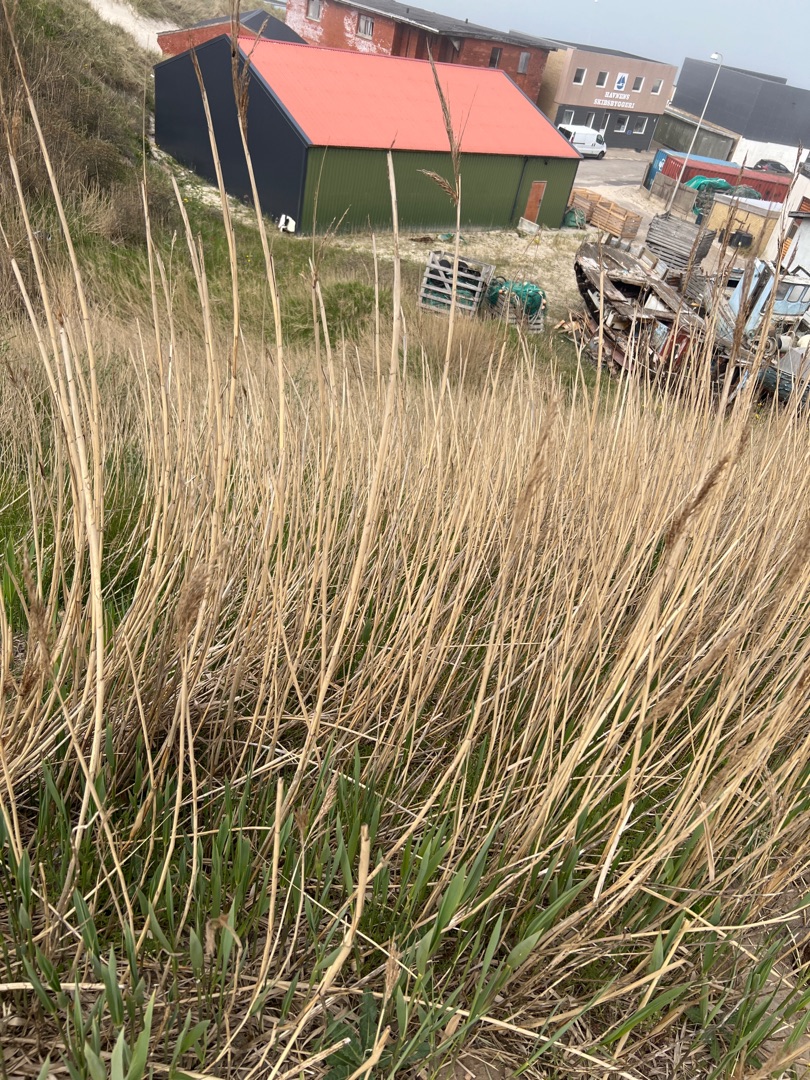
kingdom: Plantae
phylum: Tracheophyta
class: Liliopsida
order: Poales
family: Poaceae
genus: Phragmites
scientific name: Phragmites australis
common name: Tagrør
